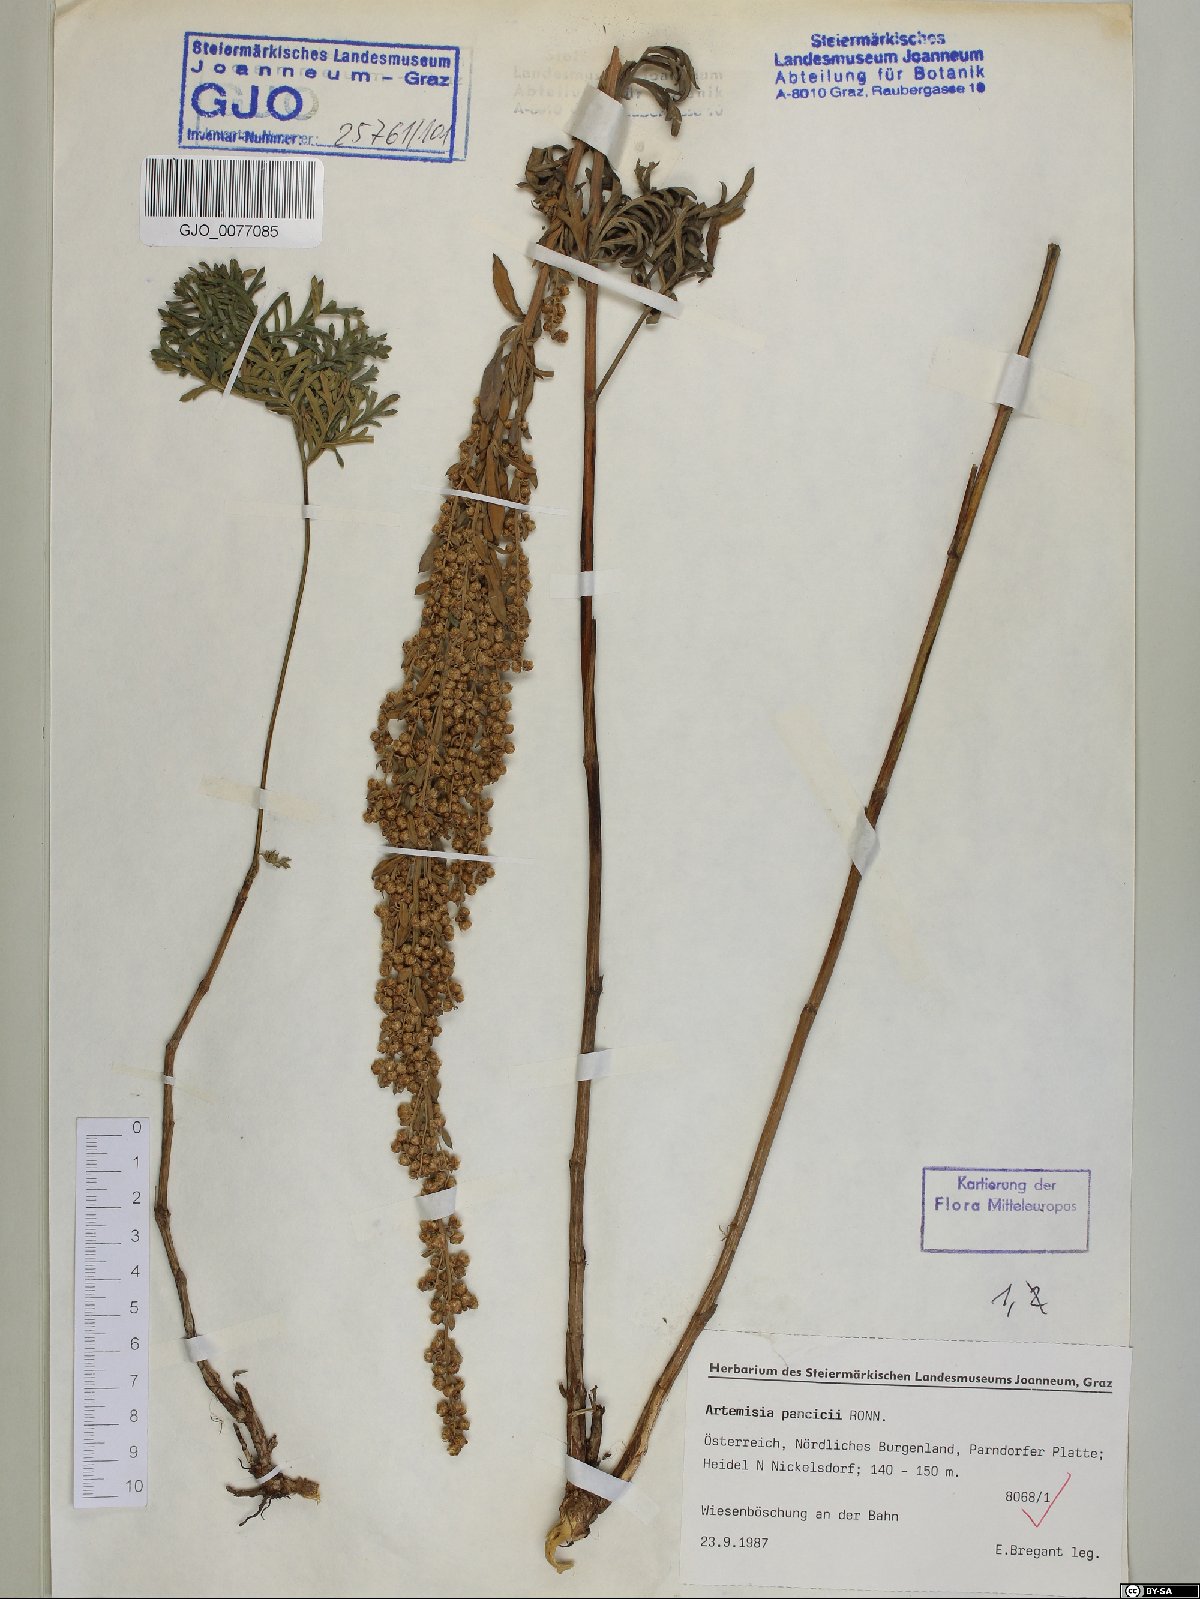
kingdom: Plantae
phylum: Tracheophyta
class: Magnoliopsida
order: Asterales
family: Asteraceae
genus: Artemisia
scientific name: Artemisia pancicii
